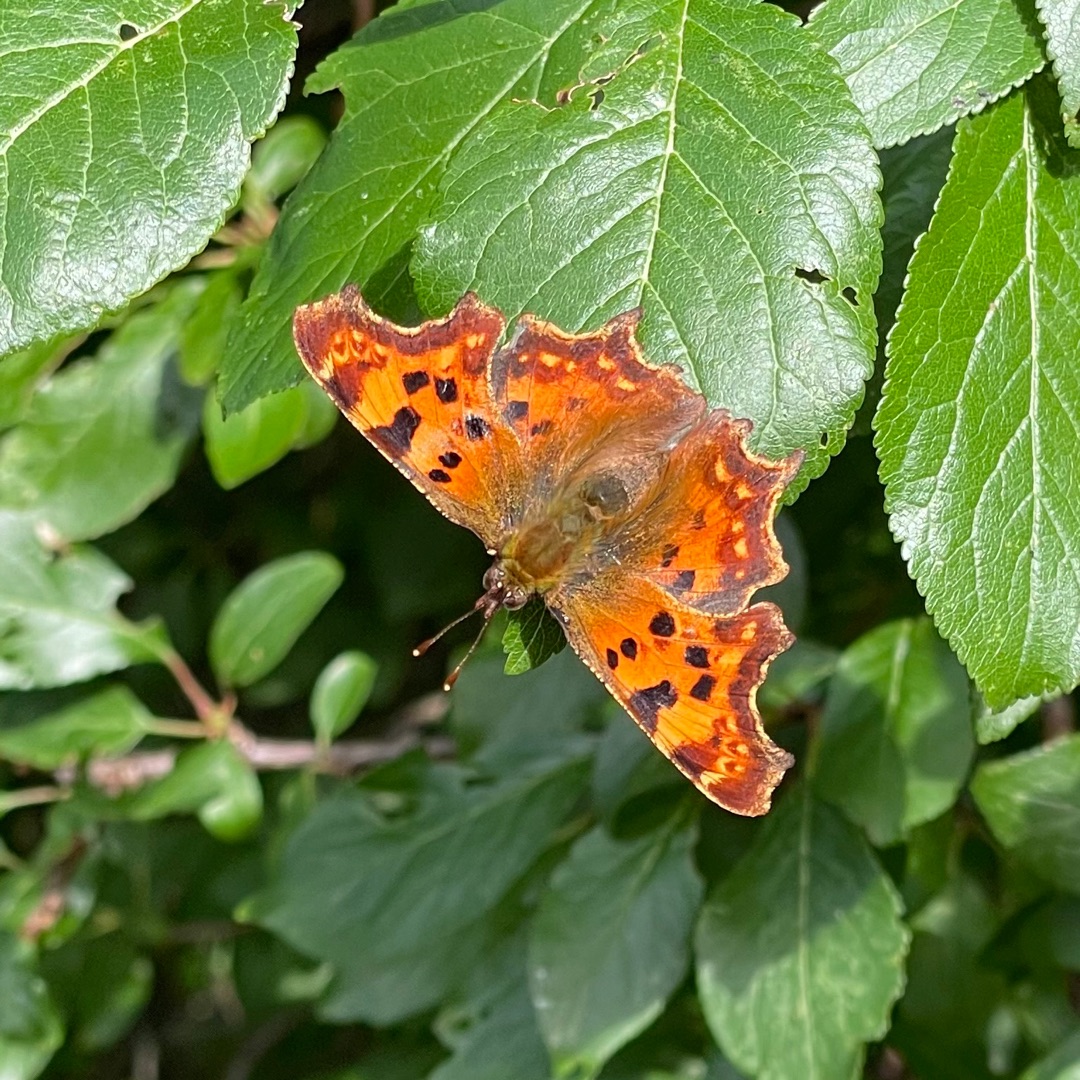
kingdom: Animalia
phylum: Arthropoda
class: Insecta
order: Lepidoptera
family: Nymphalidae
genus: Polygonia
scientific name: Polygonia c-album
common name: Det hvide C
